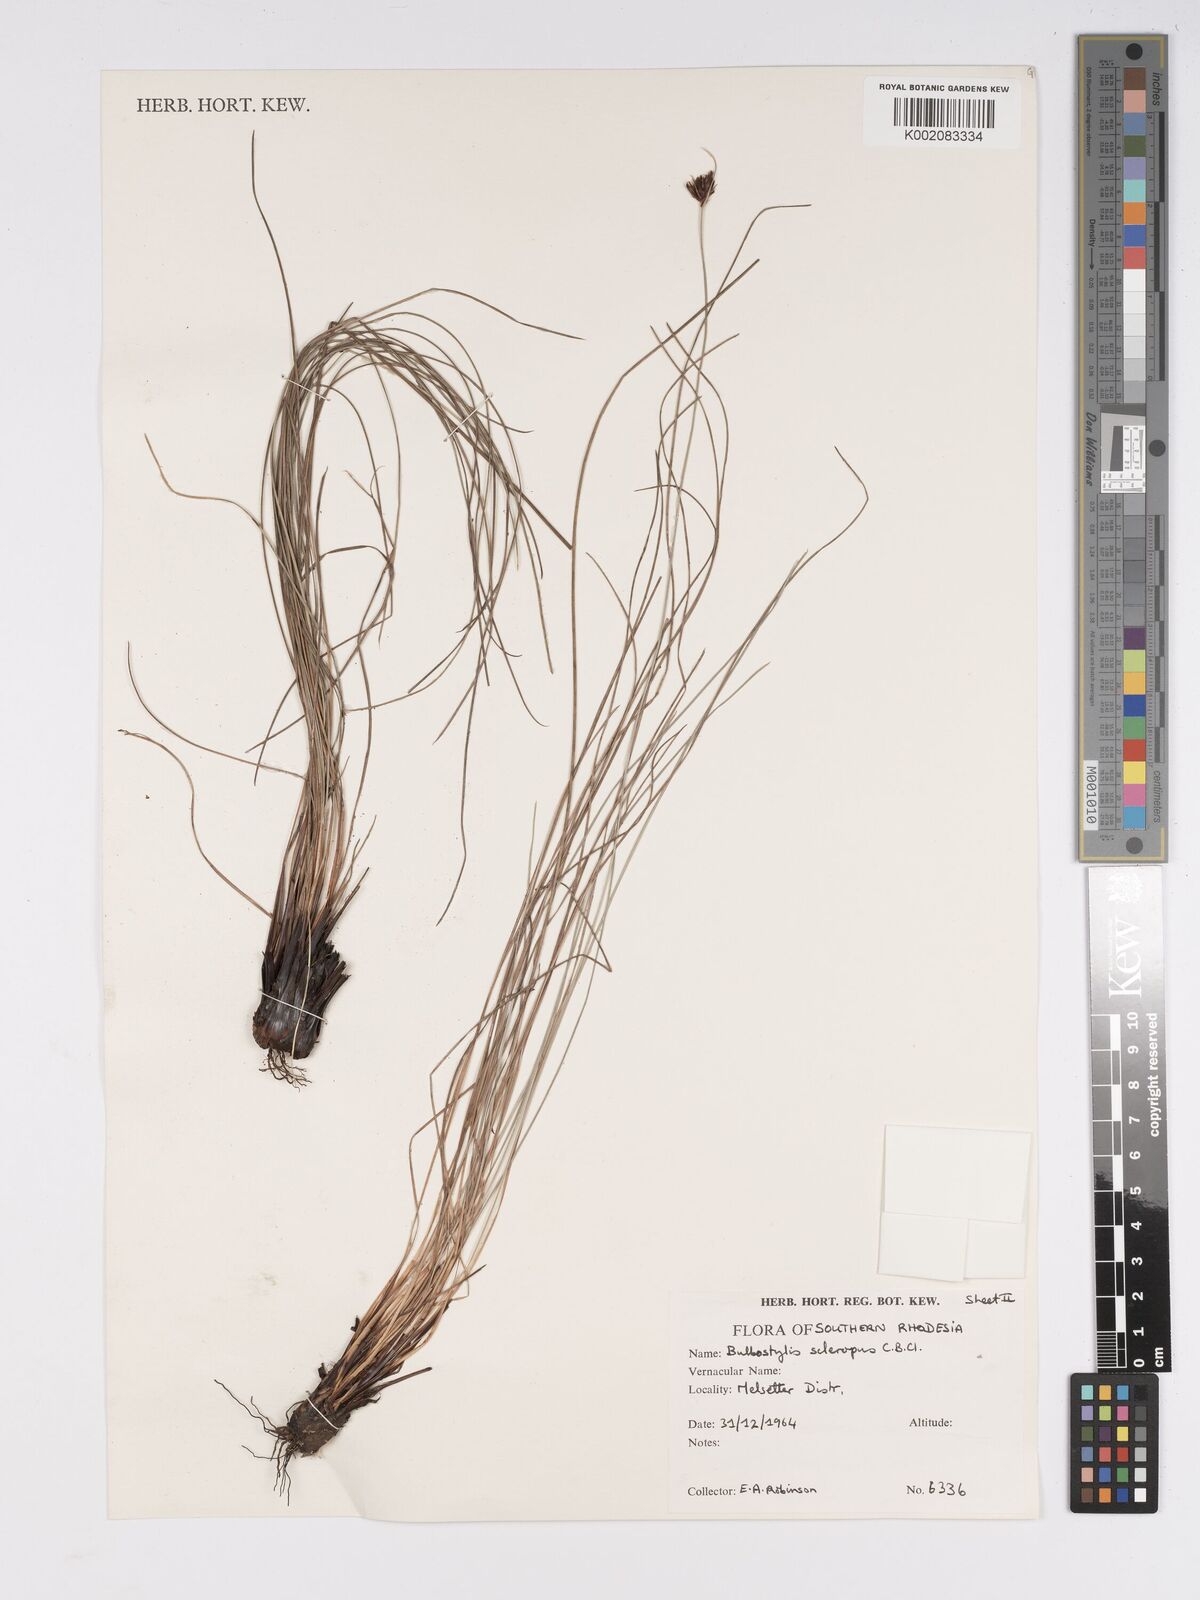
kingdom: Plantae
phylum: Tracheophyta
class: Liliopsida
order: Poales
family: Cyperaceae
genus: Bulbostylis
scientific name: Bulbostylis schoenoides
